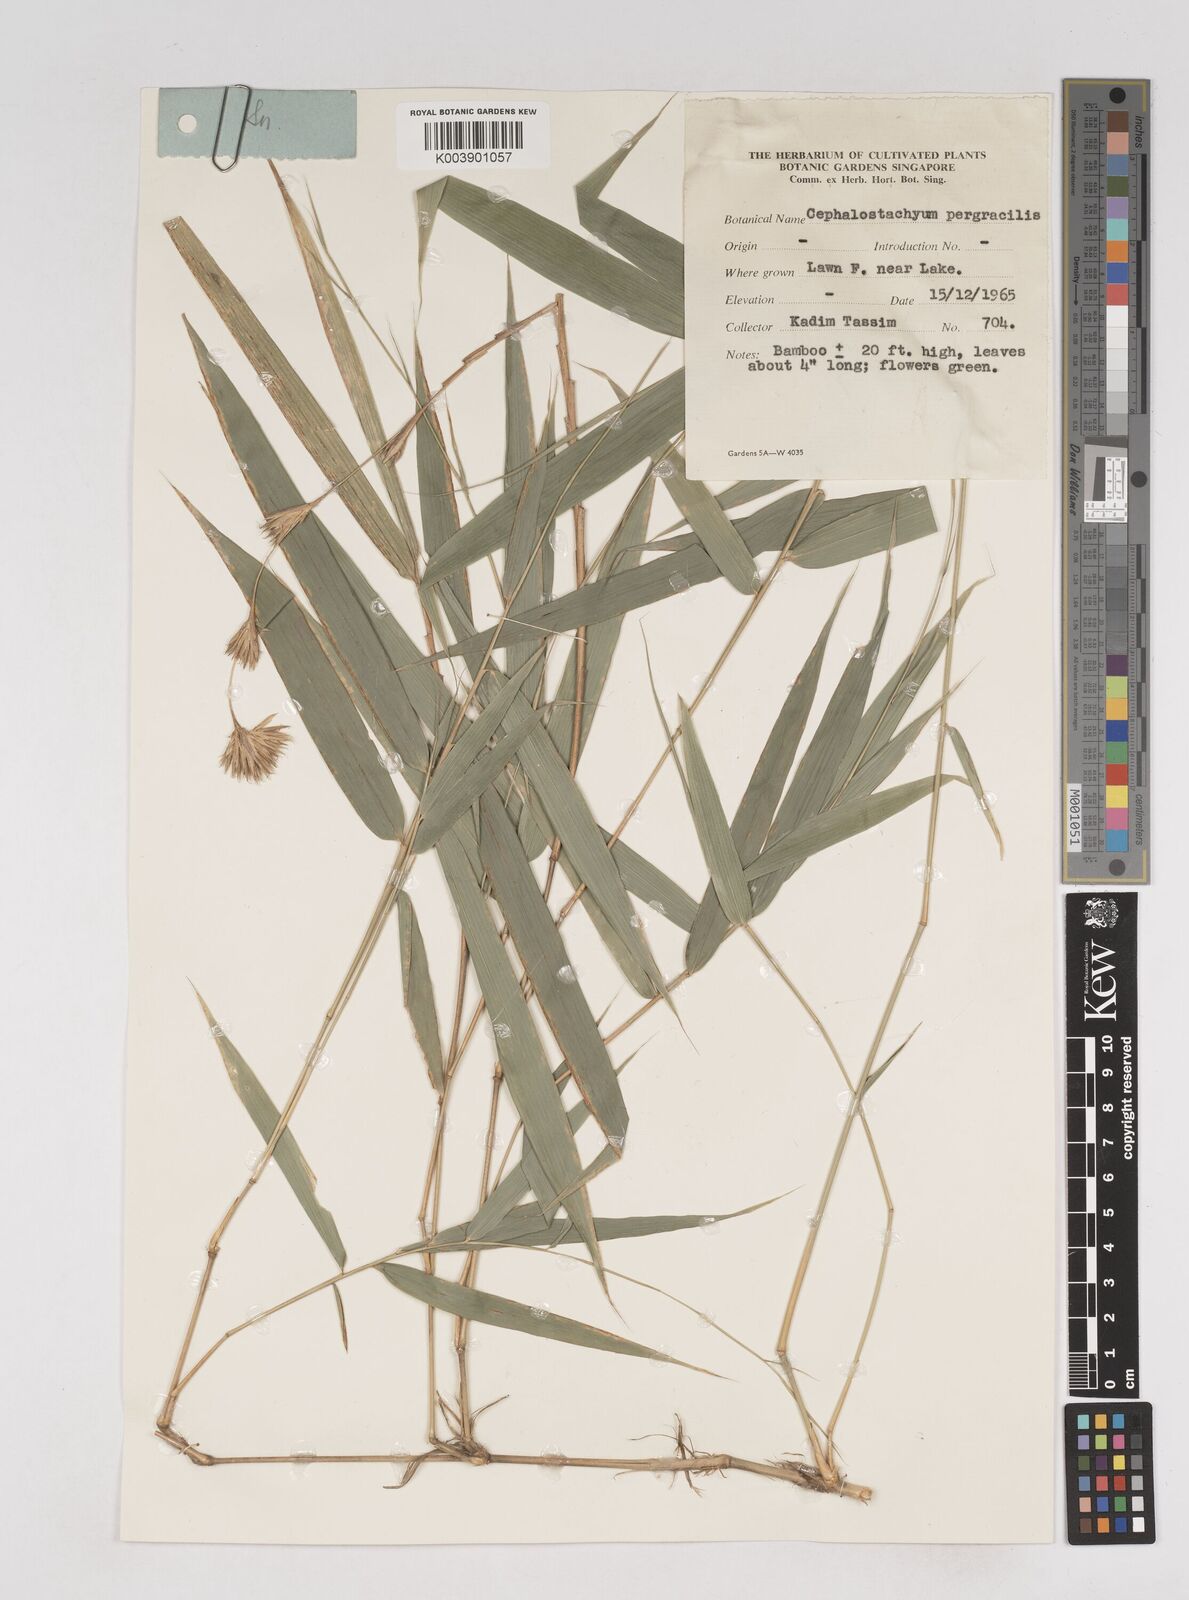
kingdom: Plantae
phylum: Tracheophyta
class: Liliopsida
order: Poales
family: Poaceae
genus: Schizostachyum
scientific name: Schizostachyum pergracile
